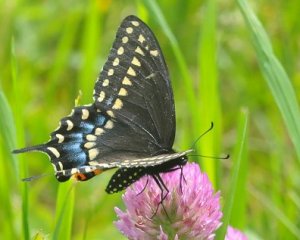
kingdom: Animalia
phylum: Arthropoda
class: Insecta
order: Lepidoptera
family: Papilionidae
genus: Papilio
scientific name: Papilio polyxenes
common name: Black Swallowtail
